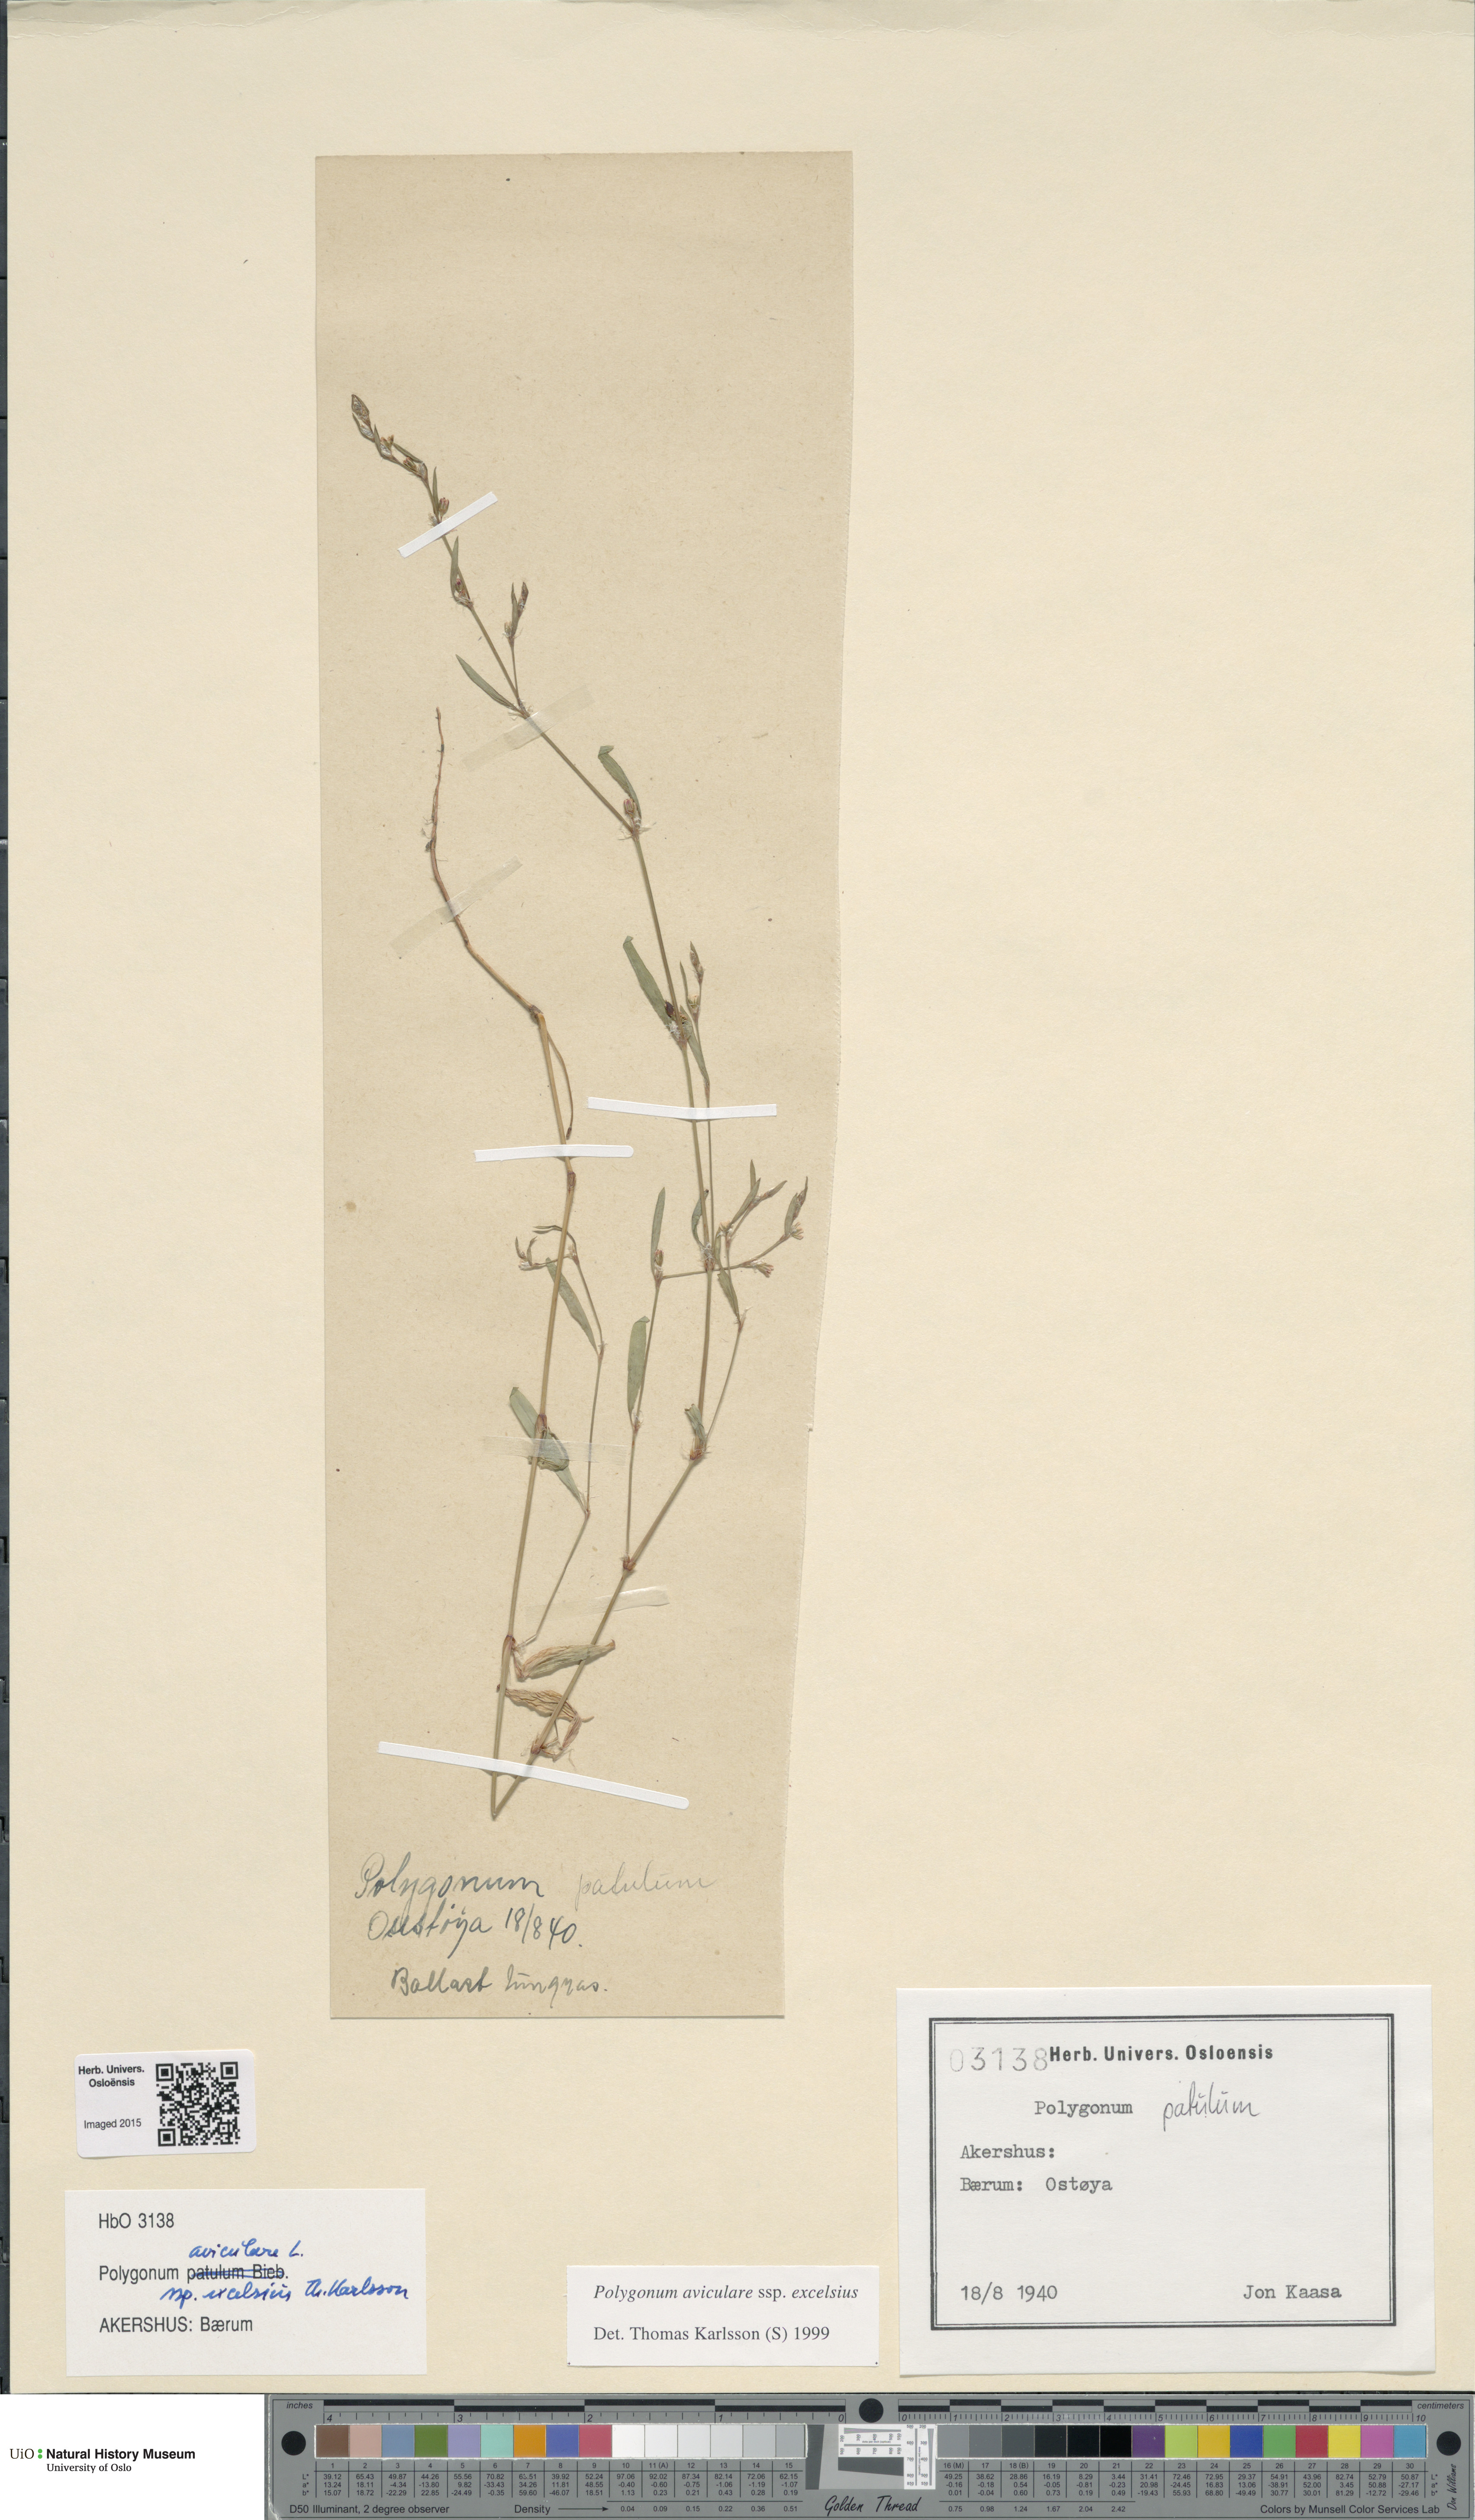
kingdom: Plantae
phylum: Tracheophyta
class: Magnoliopsida
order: Caryophyllales
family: Polygonaceae
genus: Polygonum
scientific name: Polygonum excelsius
